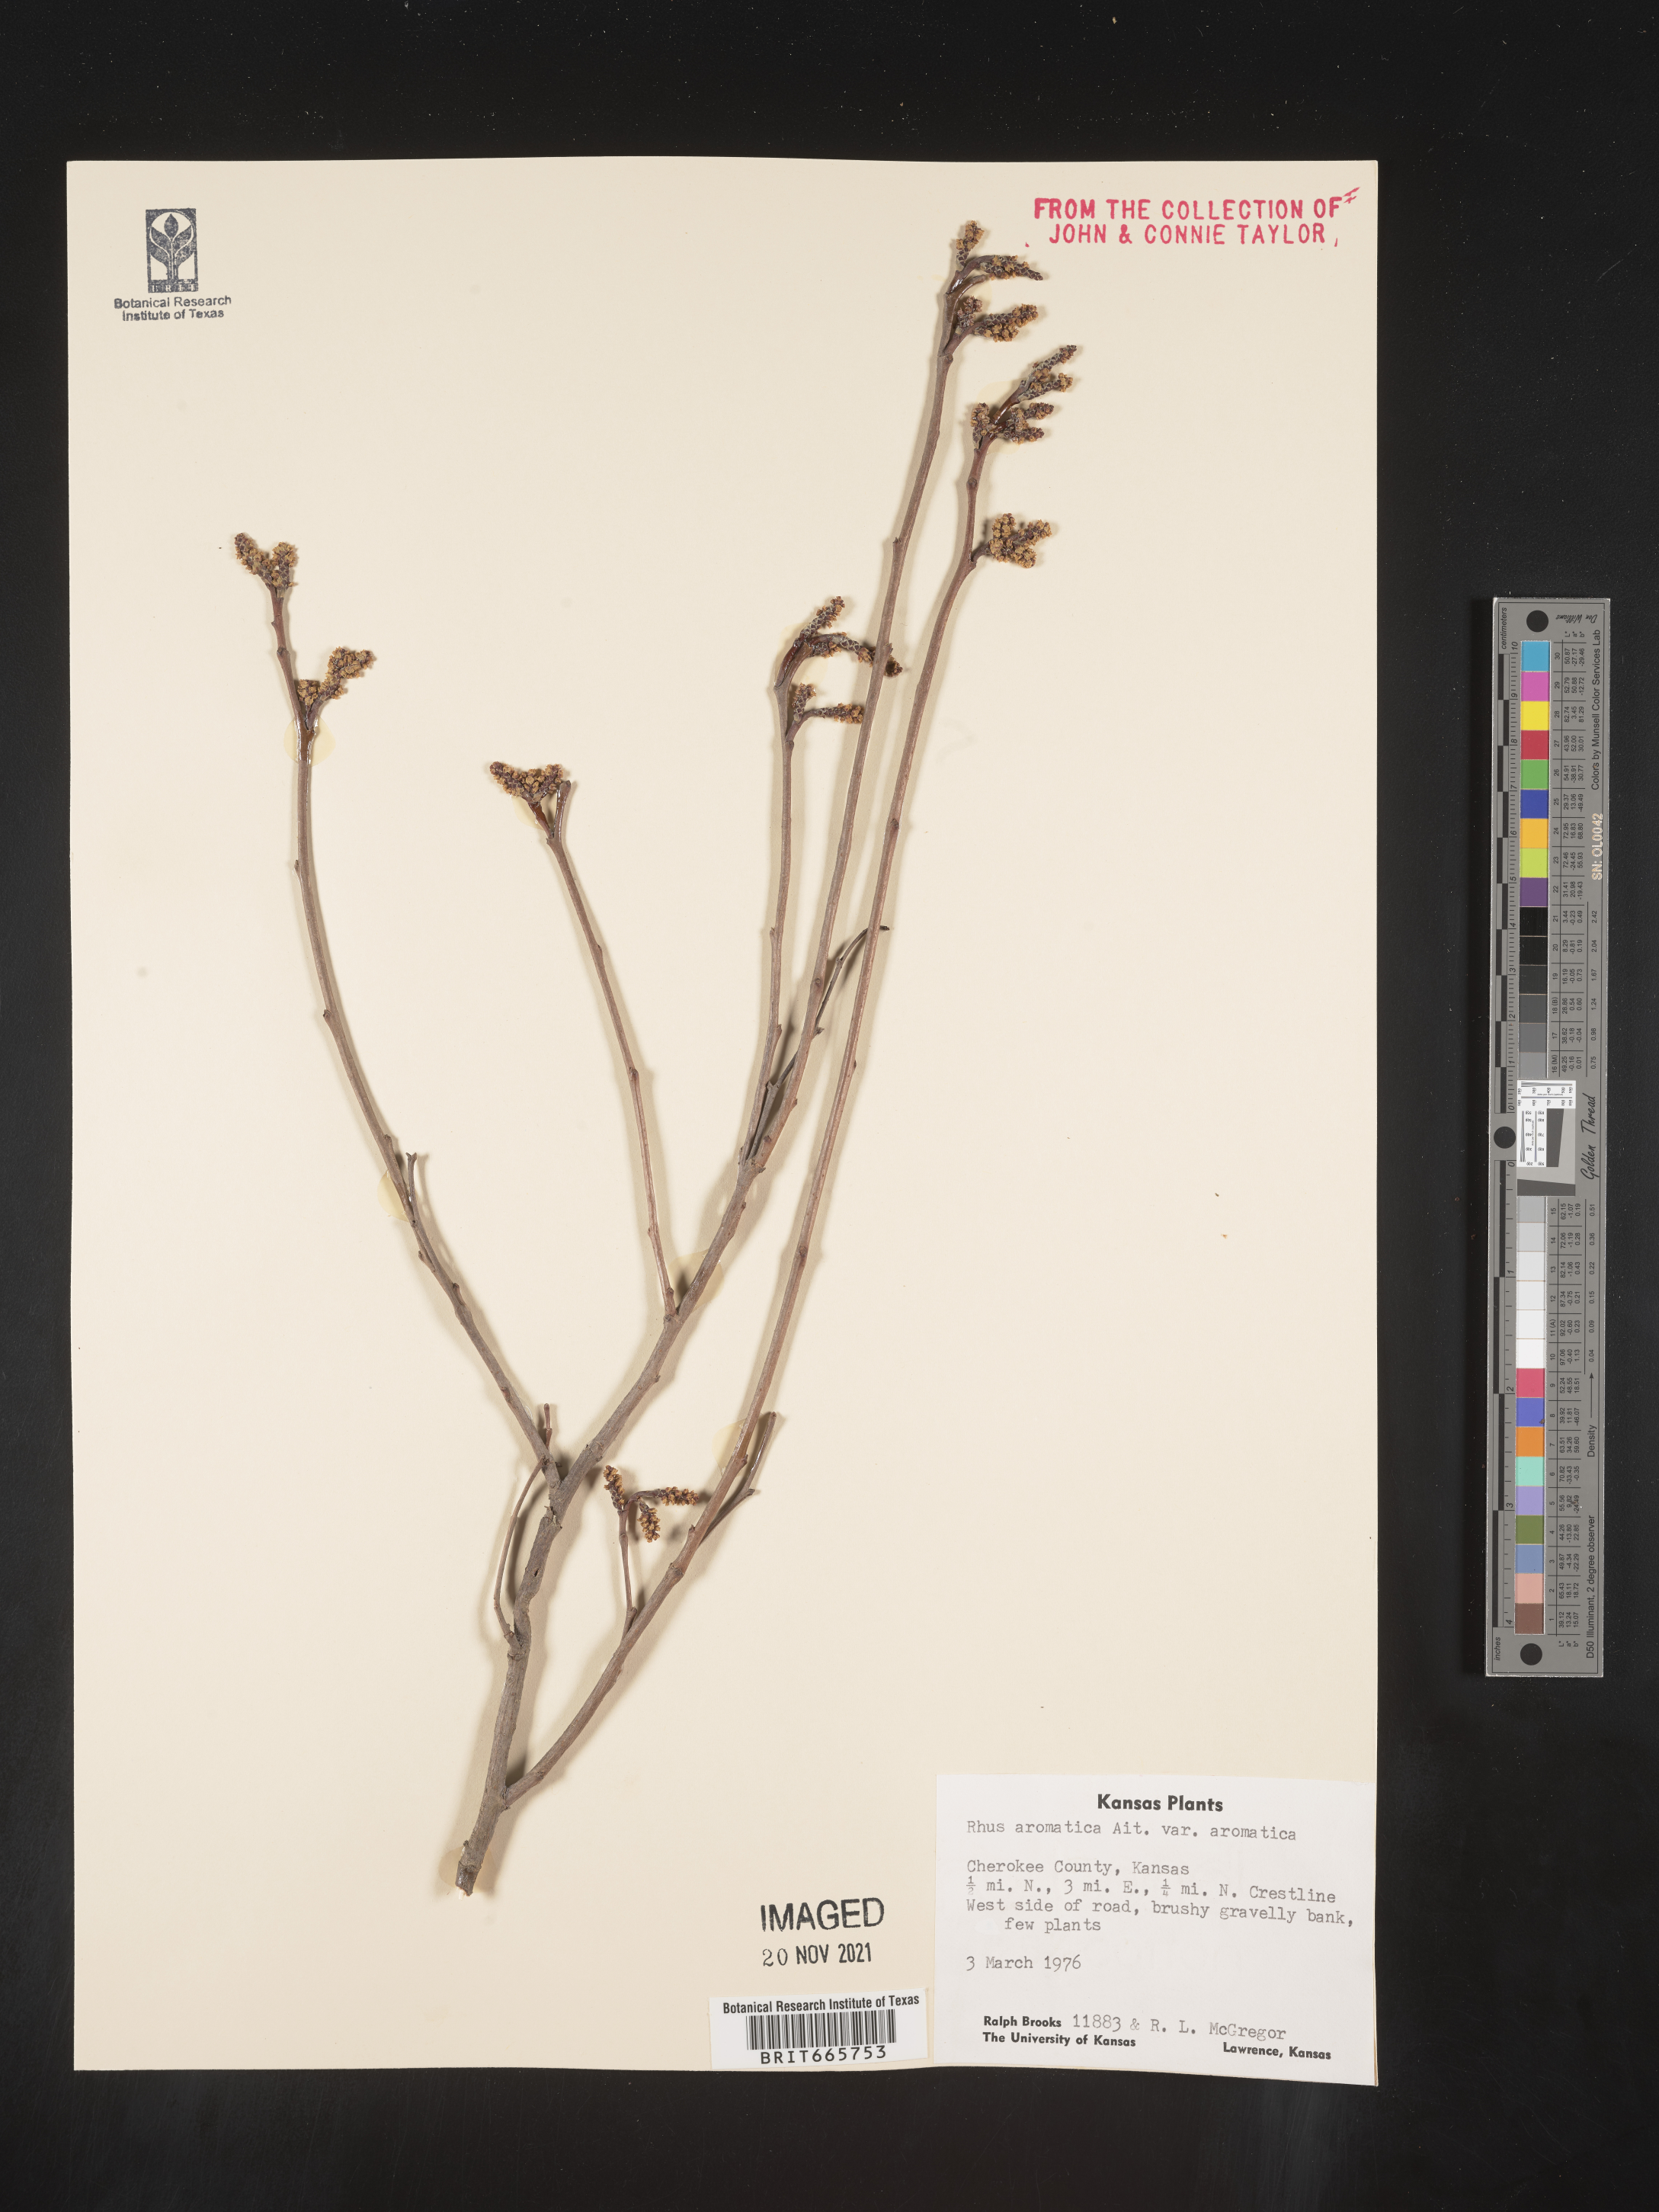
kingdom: Plantae
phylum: Tracheophyta
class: Magnoliopsida
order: Sapindales
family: Anacardiaceae
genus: Rhus
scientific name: Rhus aromatica
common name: Aromatic sumac
